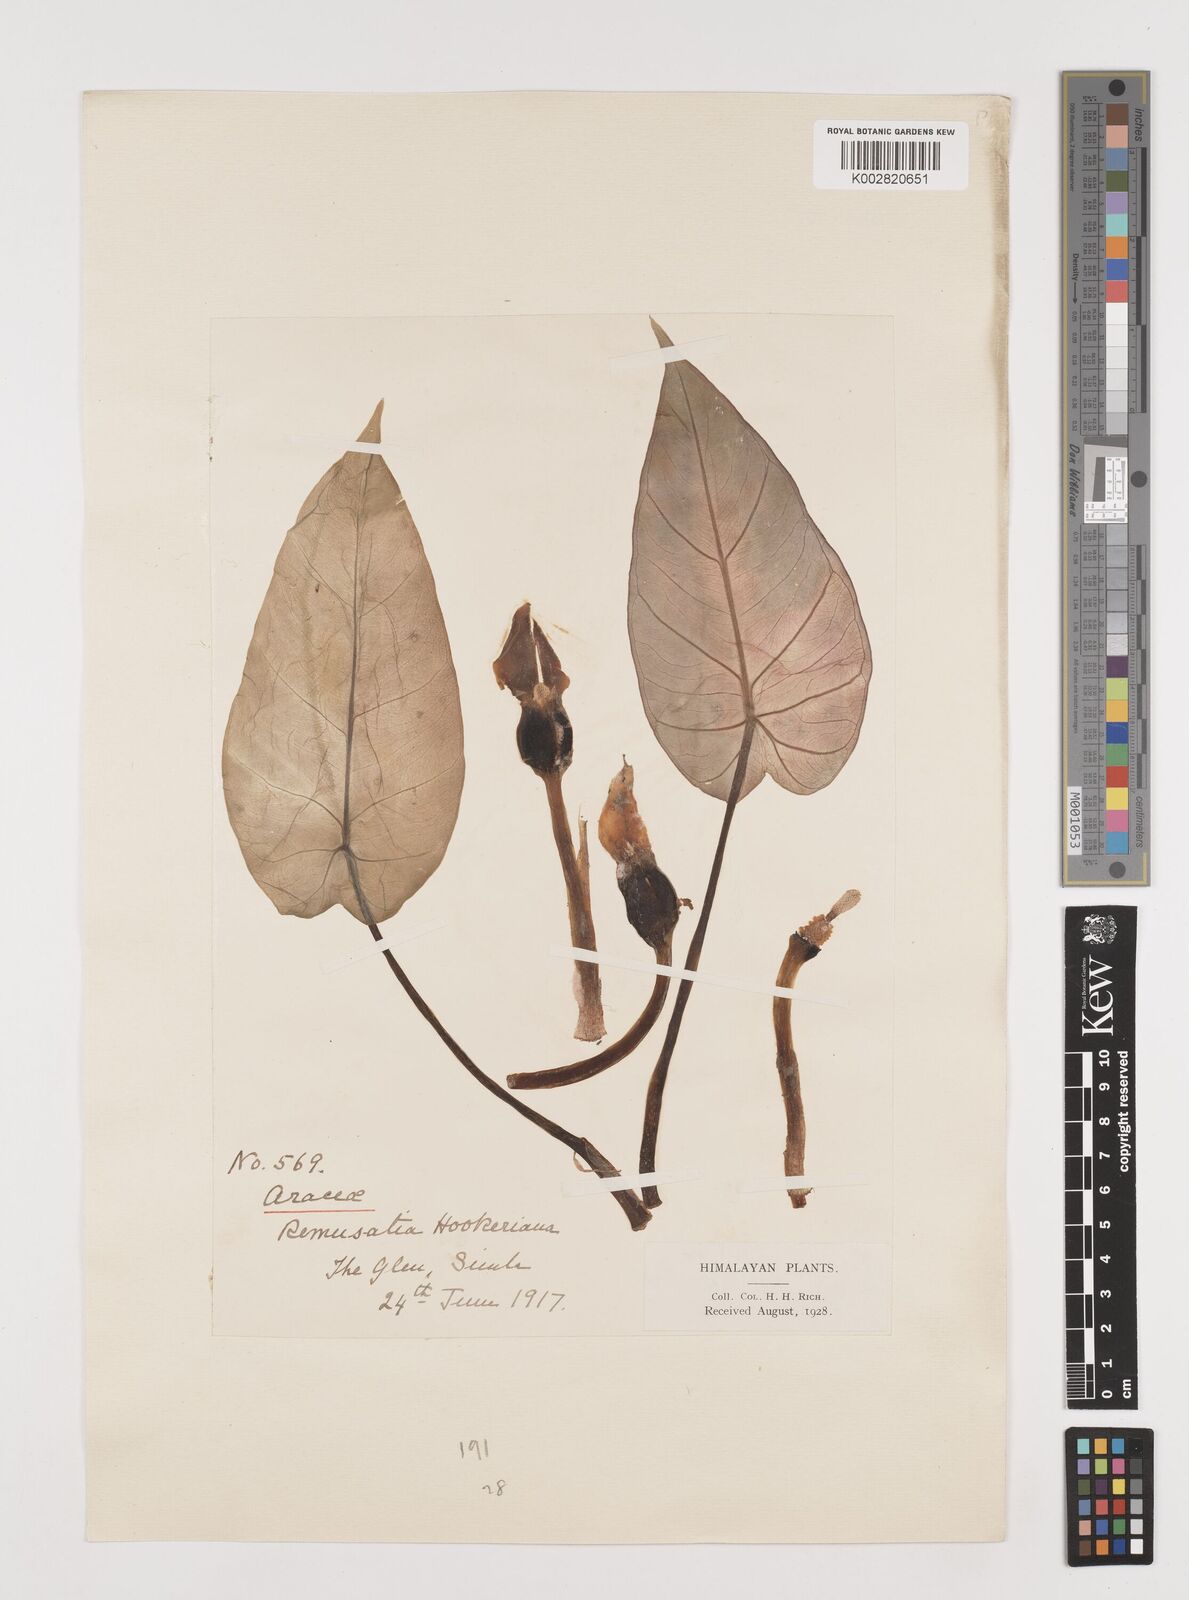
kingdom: Plantae
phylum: Tracheophyta
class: Liliopsida
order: Alismatales
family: Araceae
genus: Remusatia
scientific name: Remusatia hookeriana
